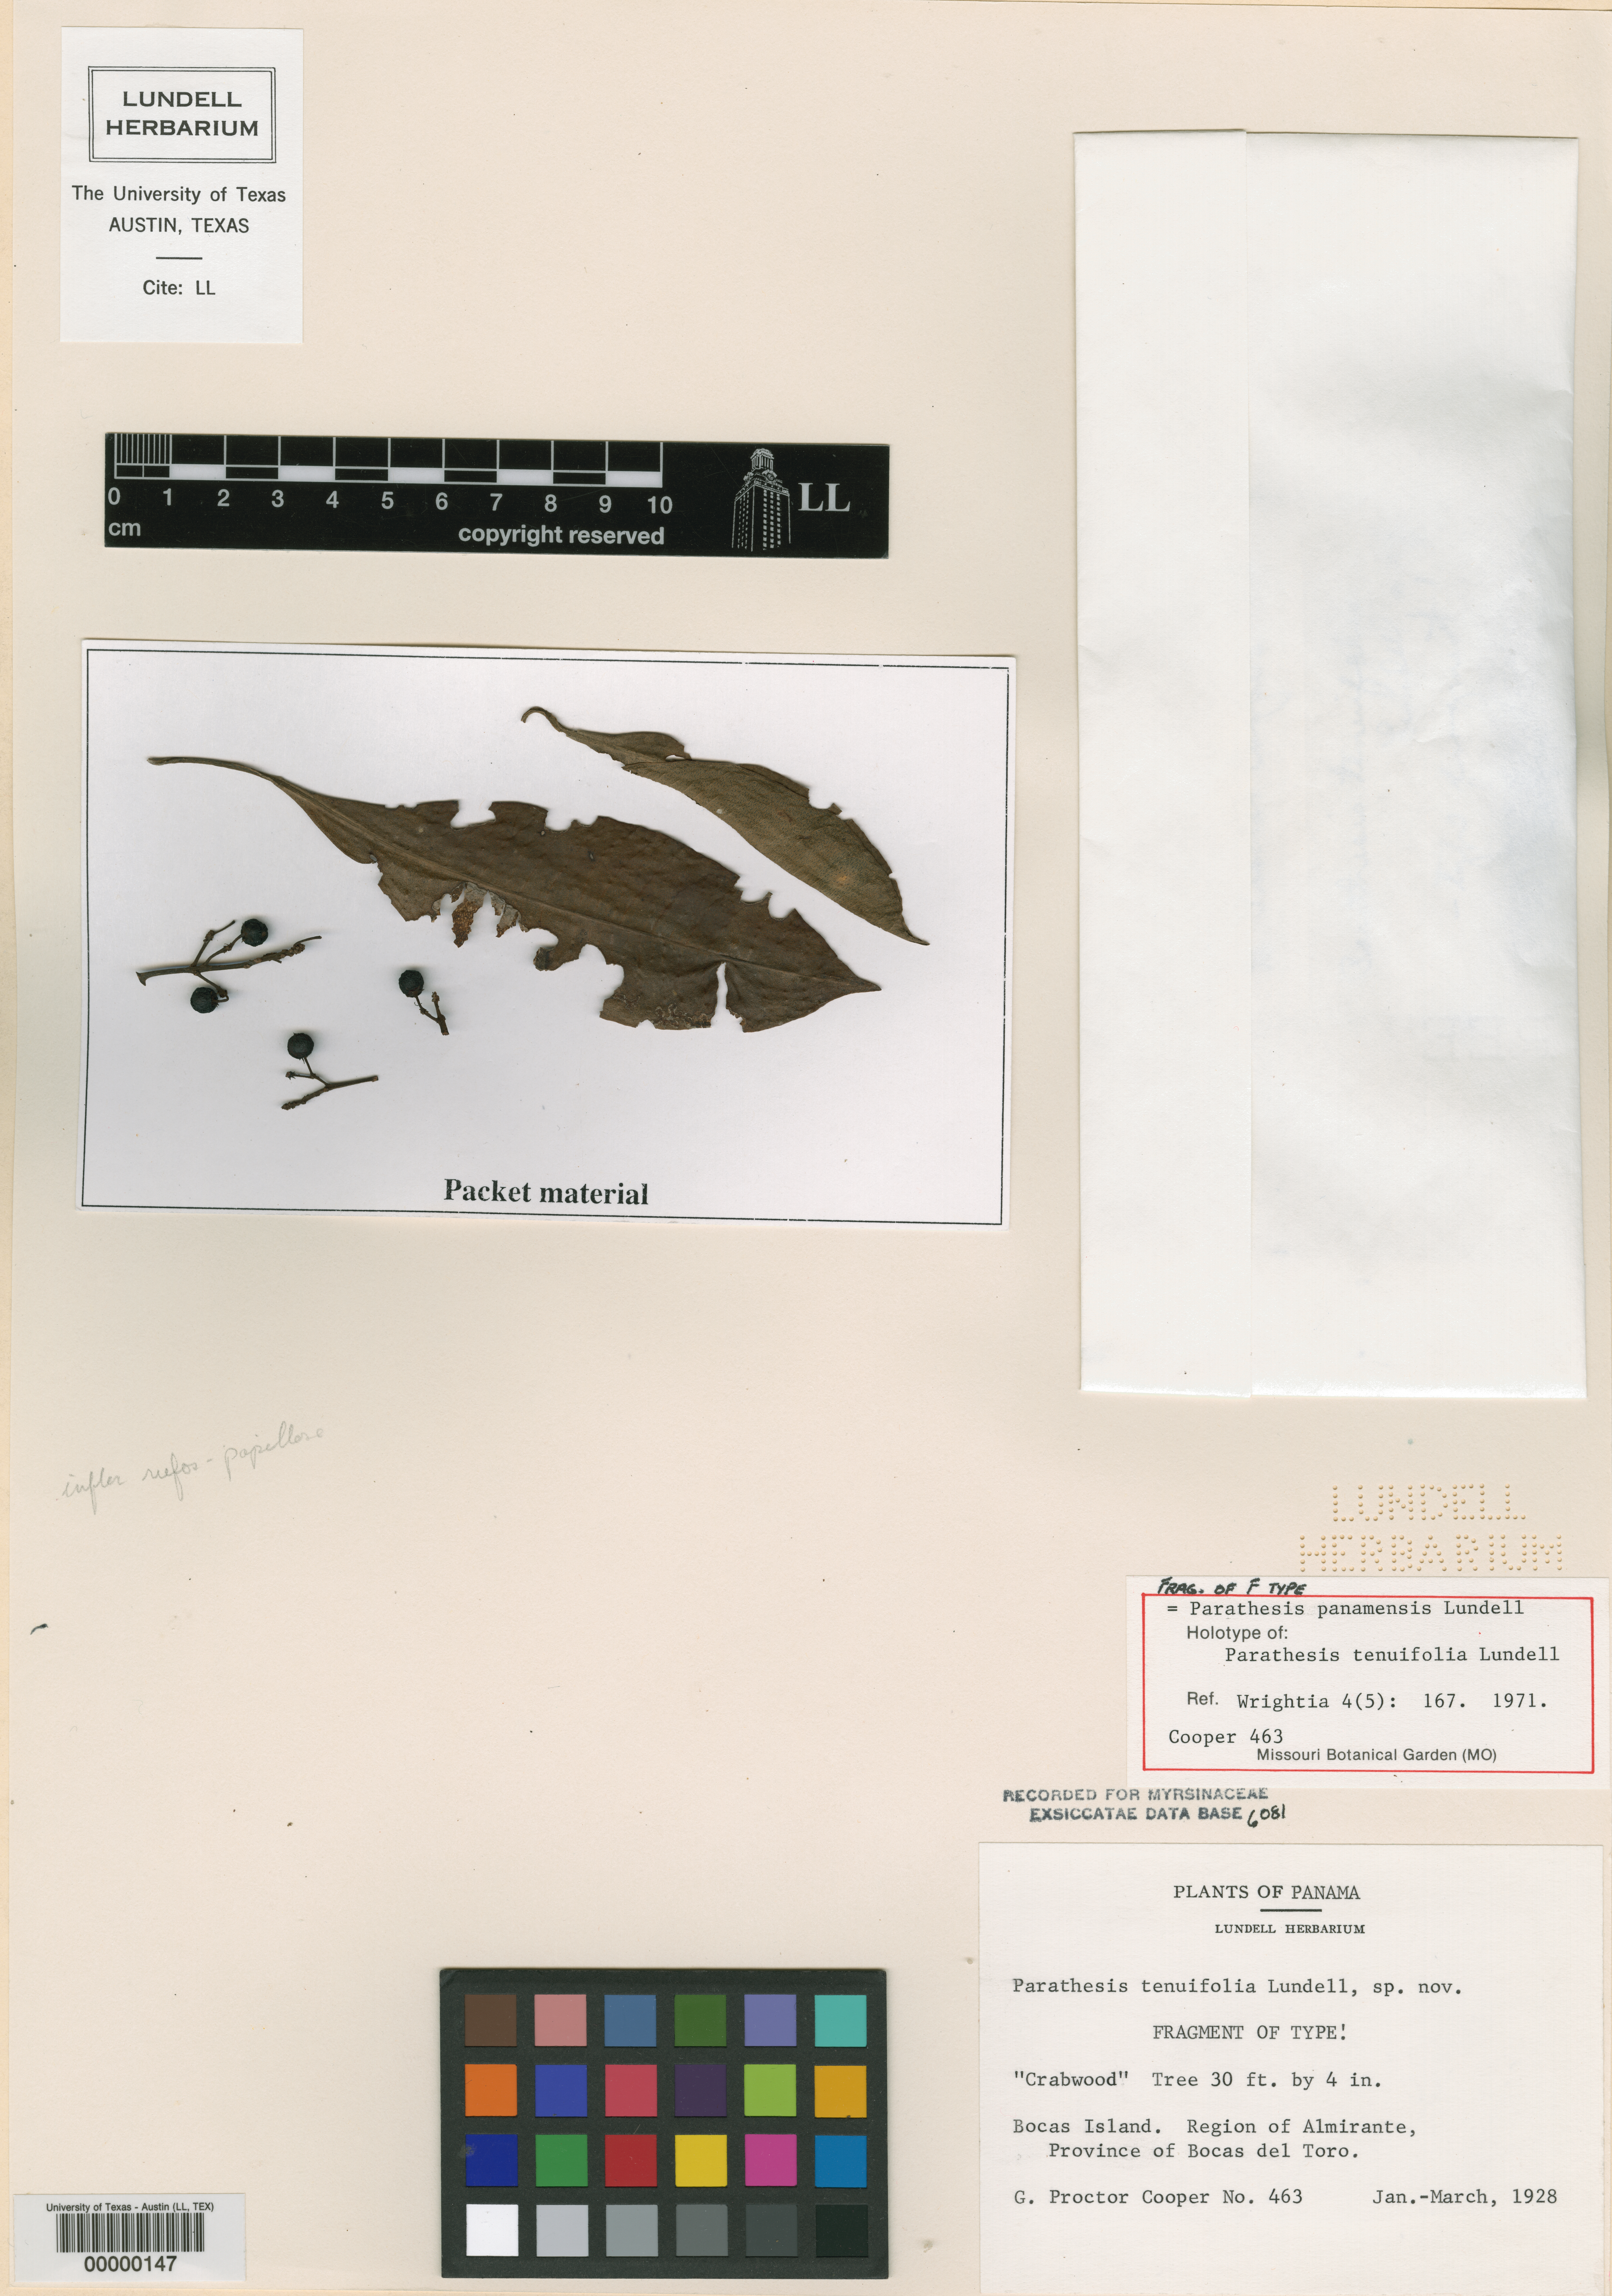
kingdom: Plantae
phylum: Tracheophyta
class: Magnoliopsida
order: Ericales
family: Primulaceae
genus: Parathesis
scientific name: Parathesis panamensis
